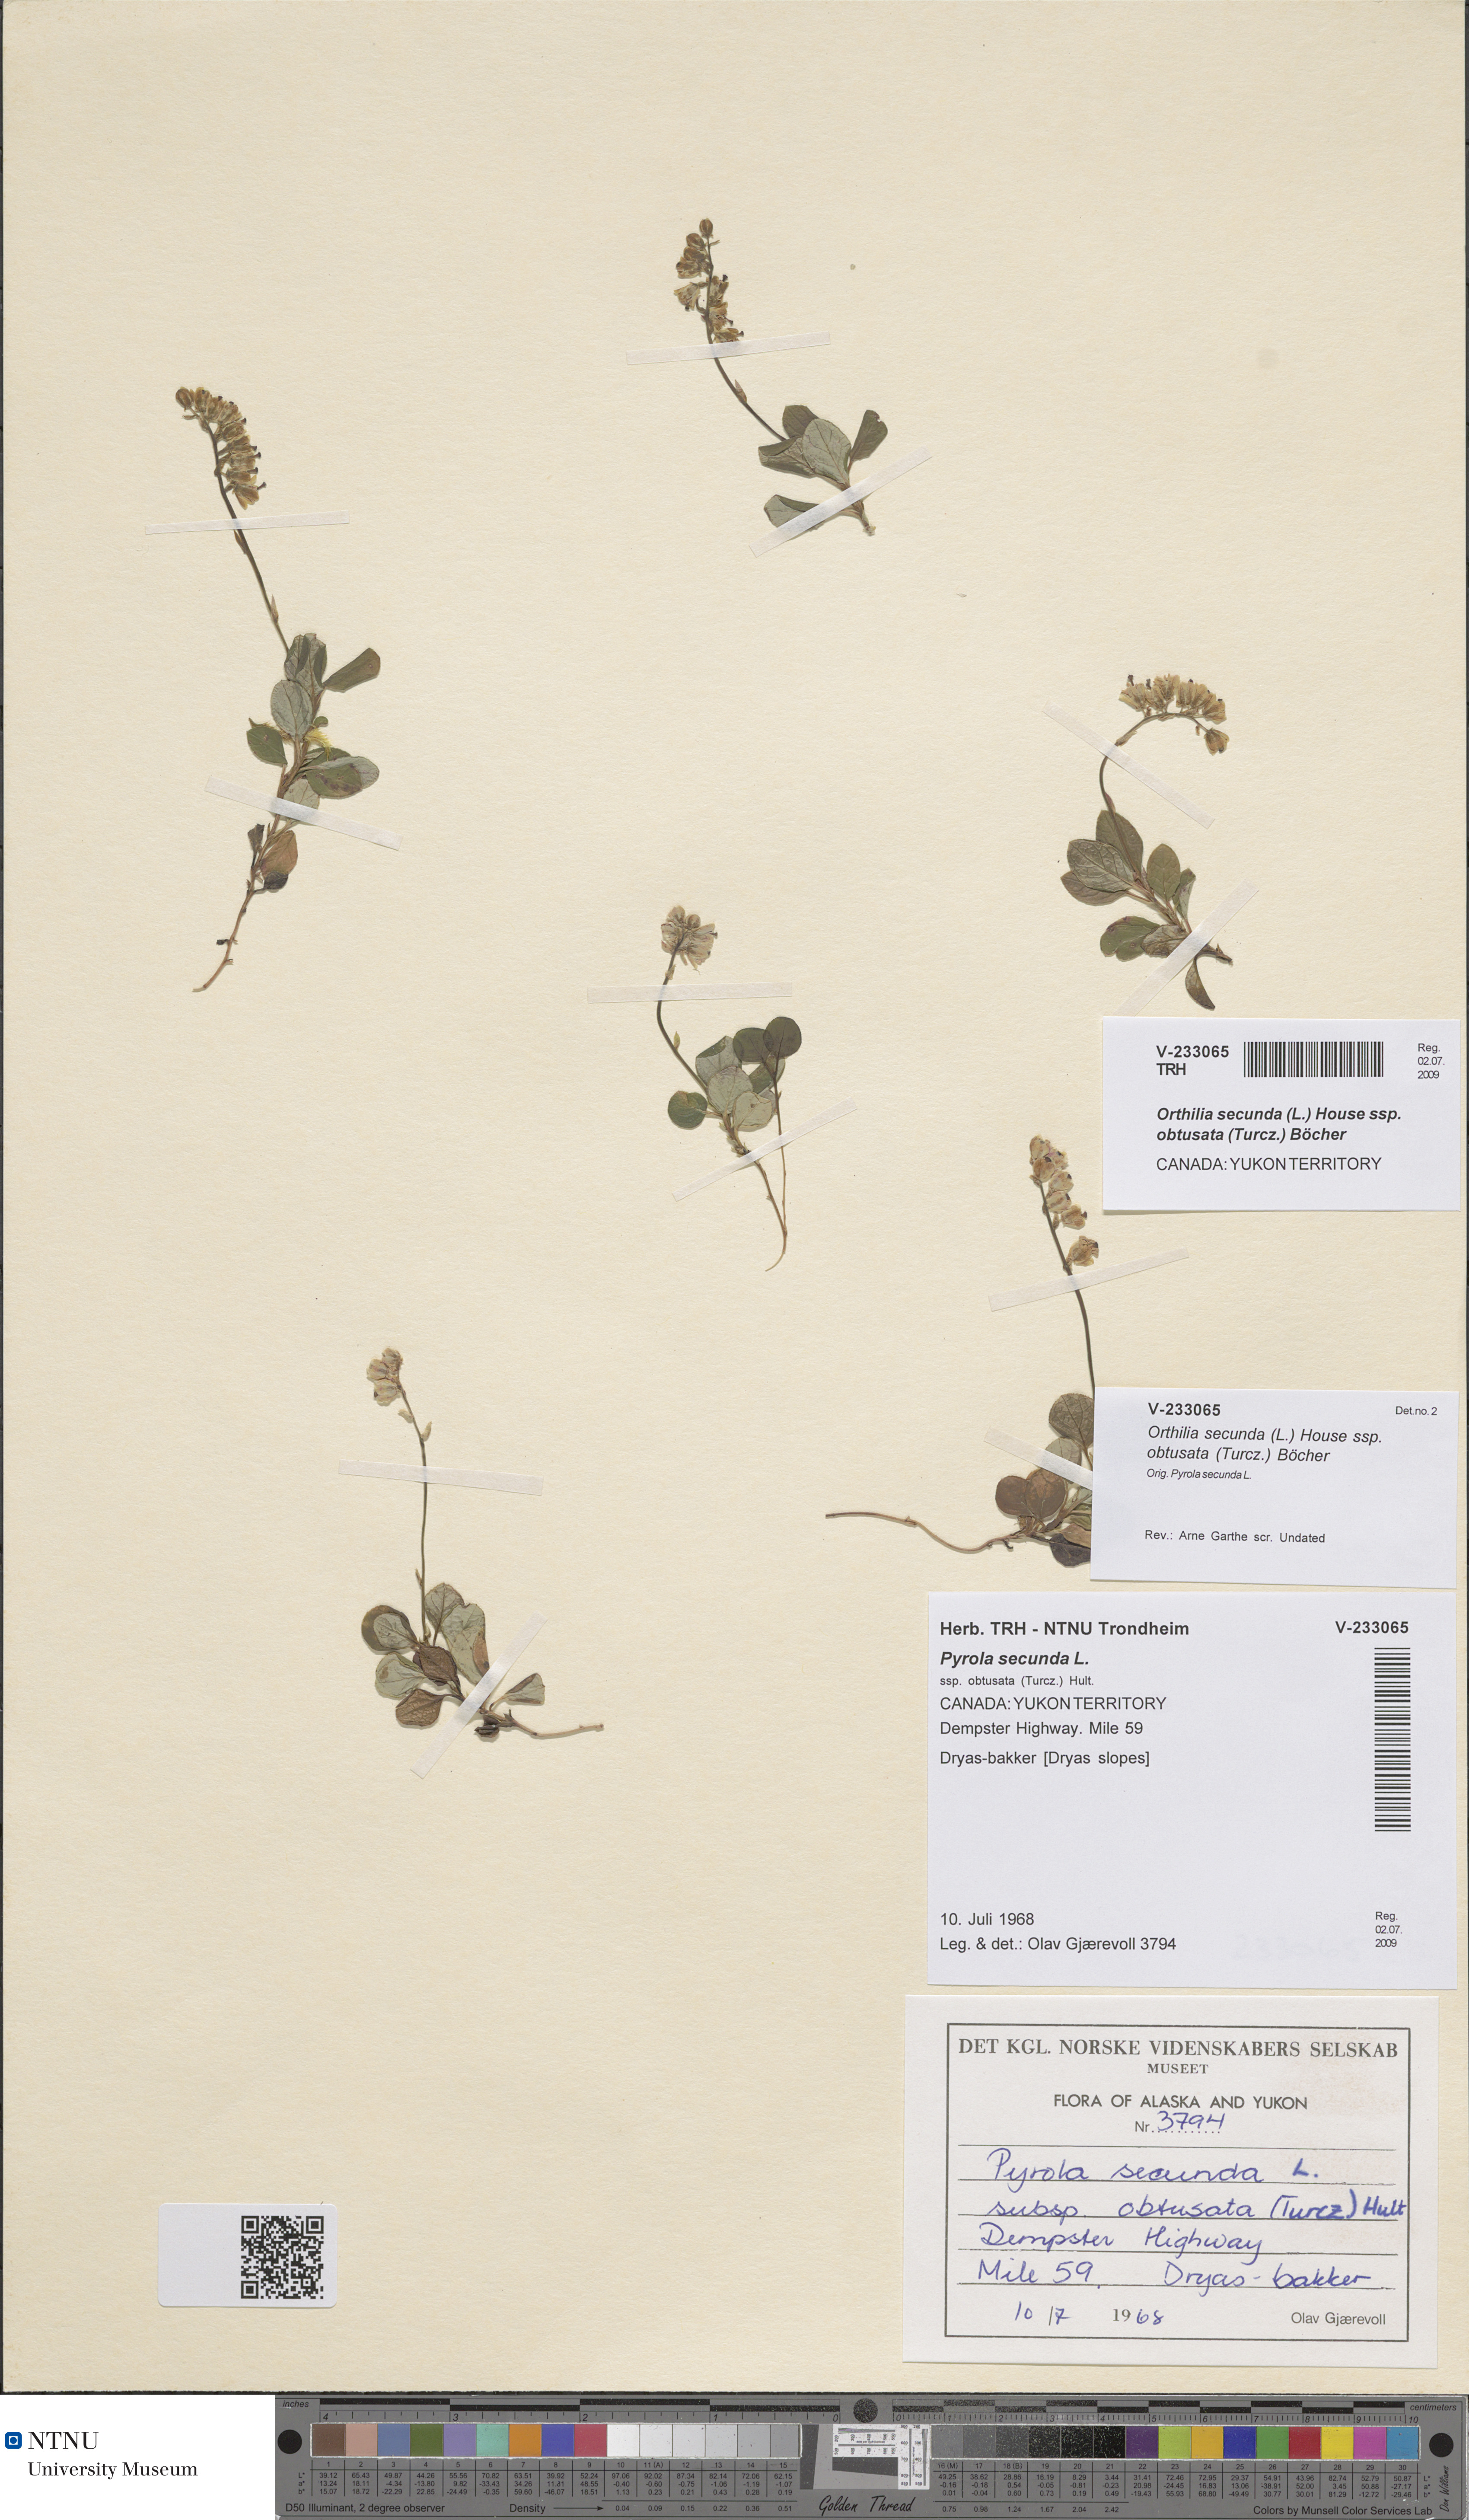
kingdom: Plantae
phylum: Tracheophyta
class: Magnoliopsida
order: Ericales
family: Ericaceae
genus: Orthilia
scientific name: Orthilia secunda
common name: One-sided orthilia
